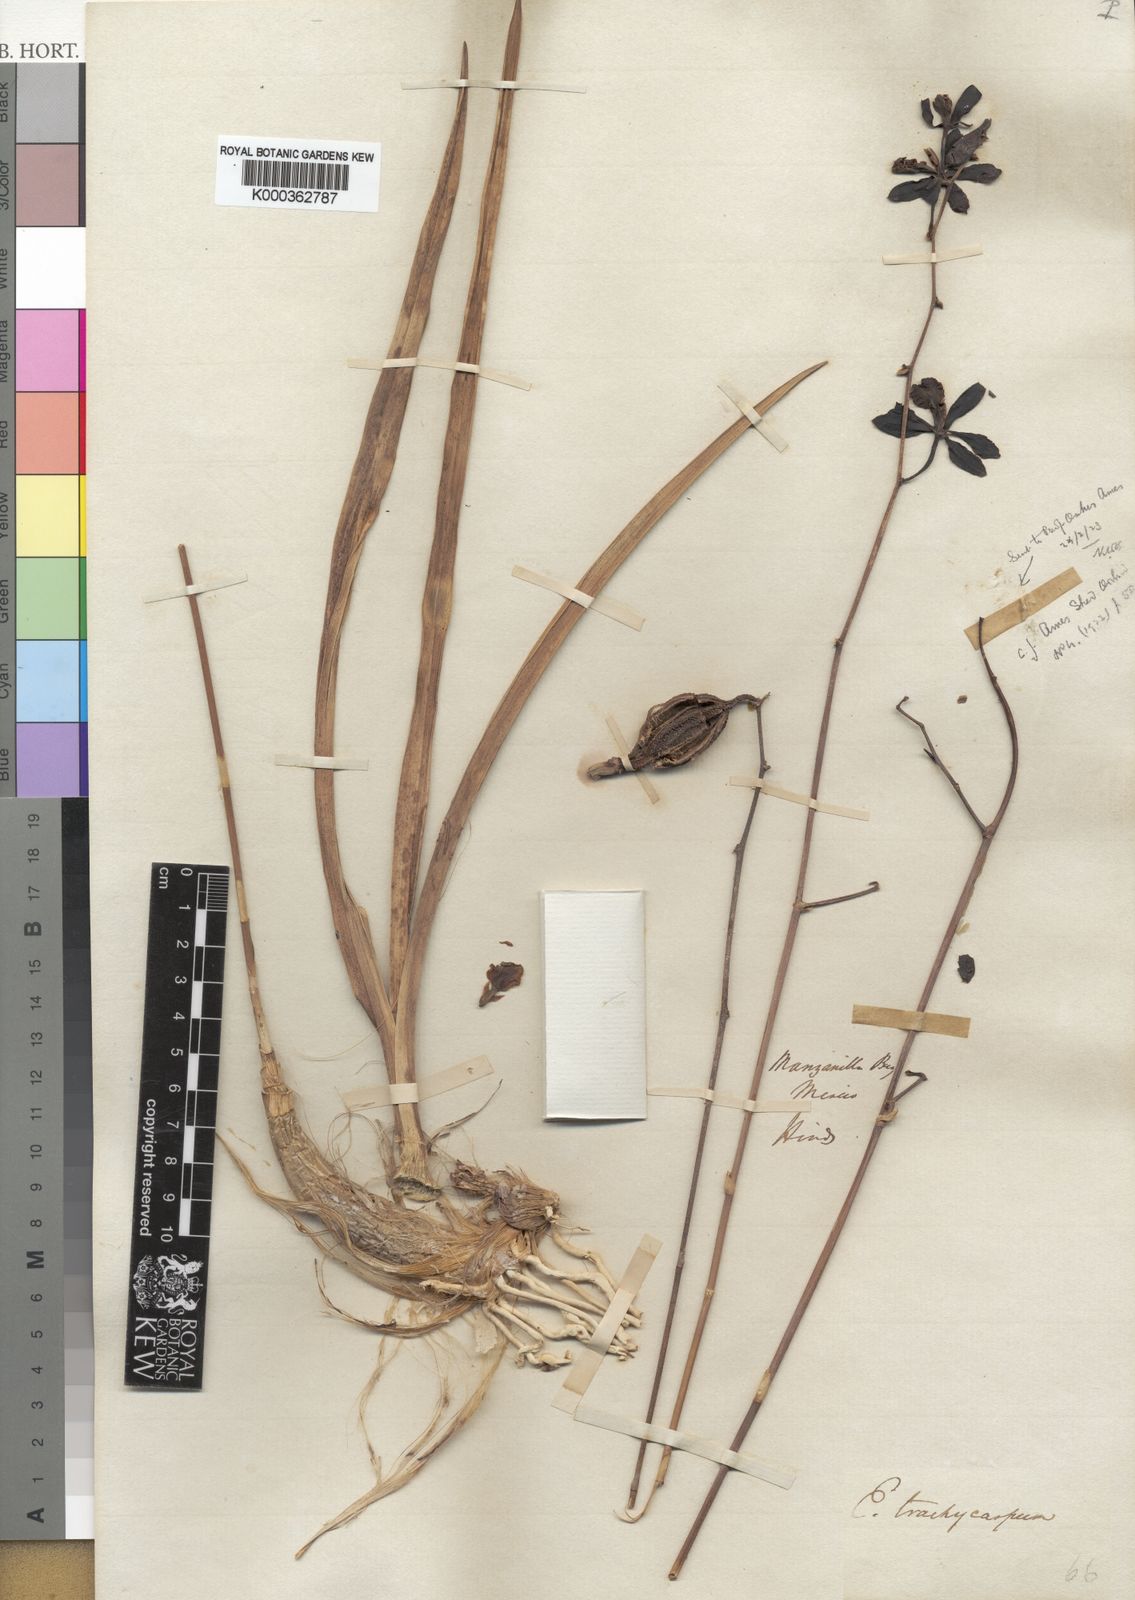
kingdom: Plantae
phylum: Tracheophyta
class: Liliopsida
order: Asparagales
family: Orchidaceae
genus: Encyclia
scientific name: Encyclia trachycarpa
